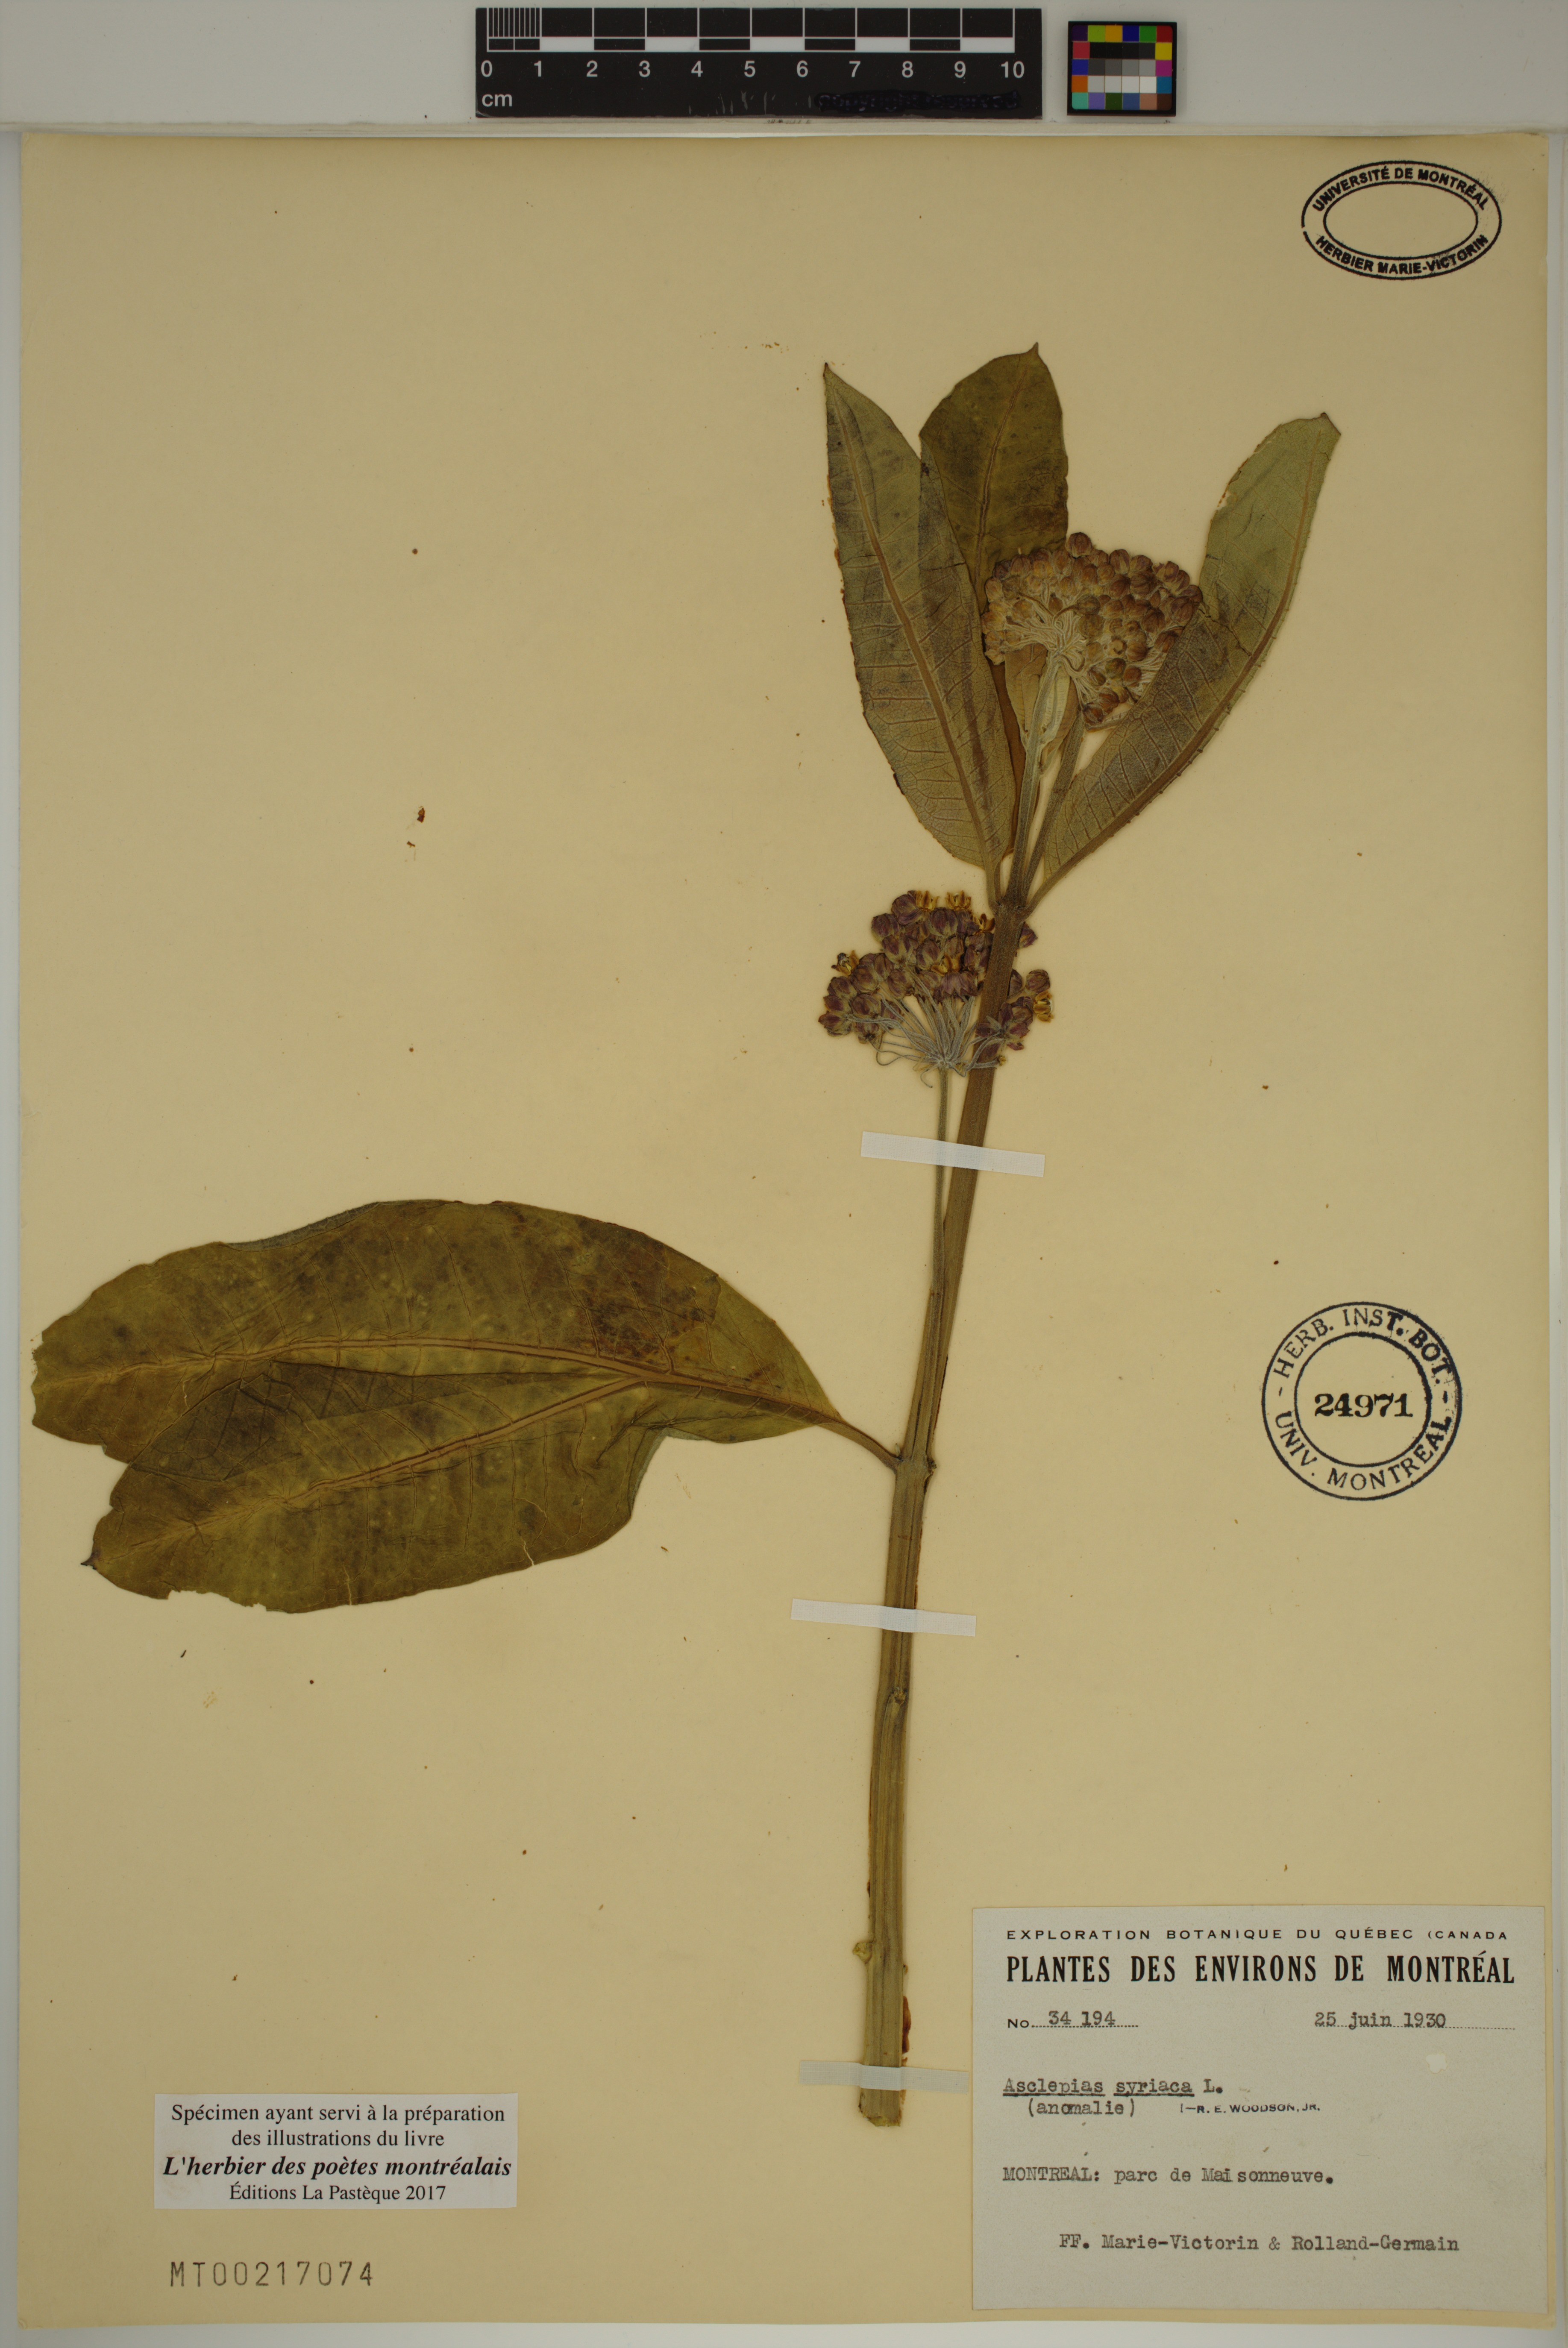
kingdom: Plantae
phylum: Tracheophyta
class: Magnoliopsida
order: Gentianales
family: Apocynaceae
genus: Asclepias
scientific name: Asclepias syriaca
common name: Common milkweed
